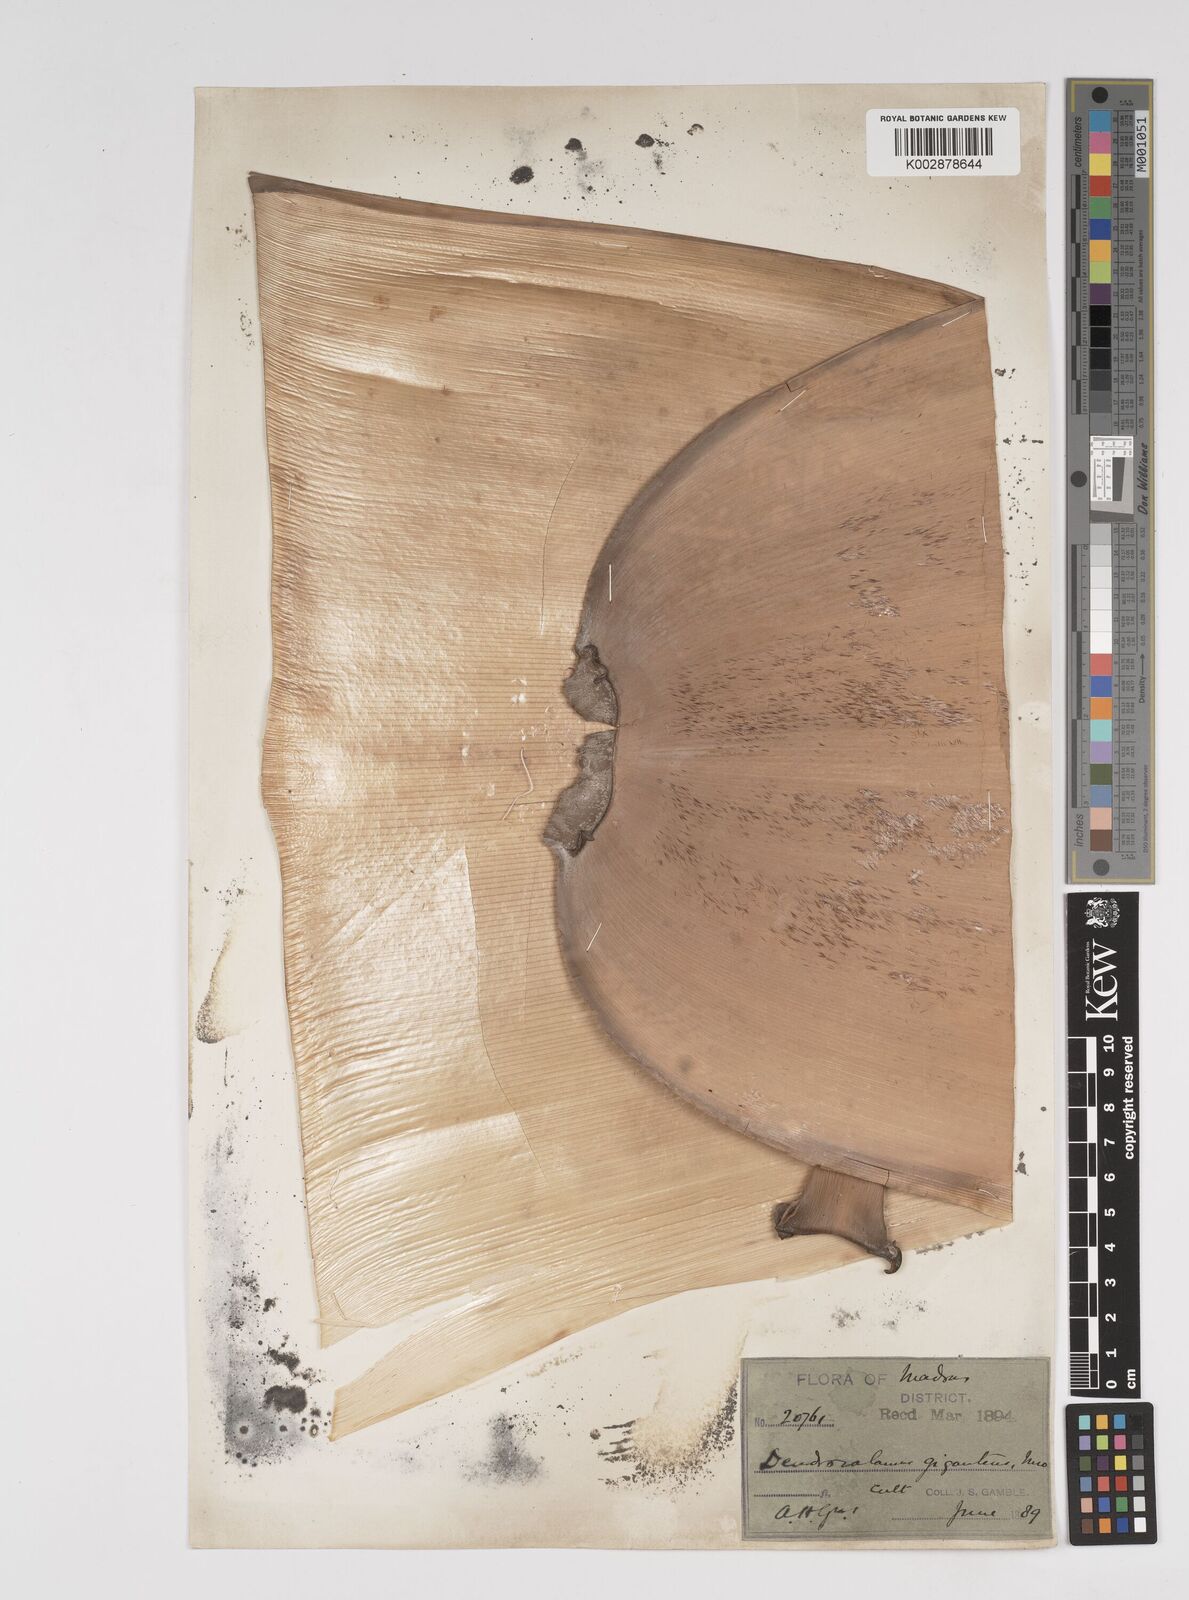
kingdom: Plantae
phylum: Tracheophyta
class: Liliopsida
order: Poales
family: Poaceae
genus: Dendrocalamus
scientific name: Dendrocalamus giganteus
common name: Giant bamboo
